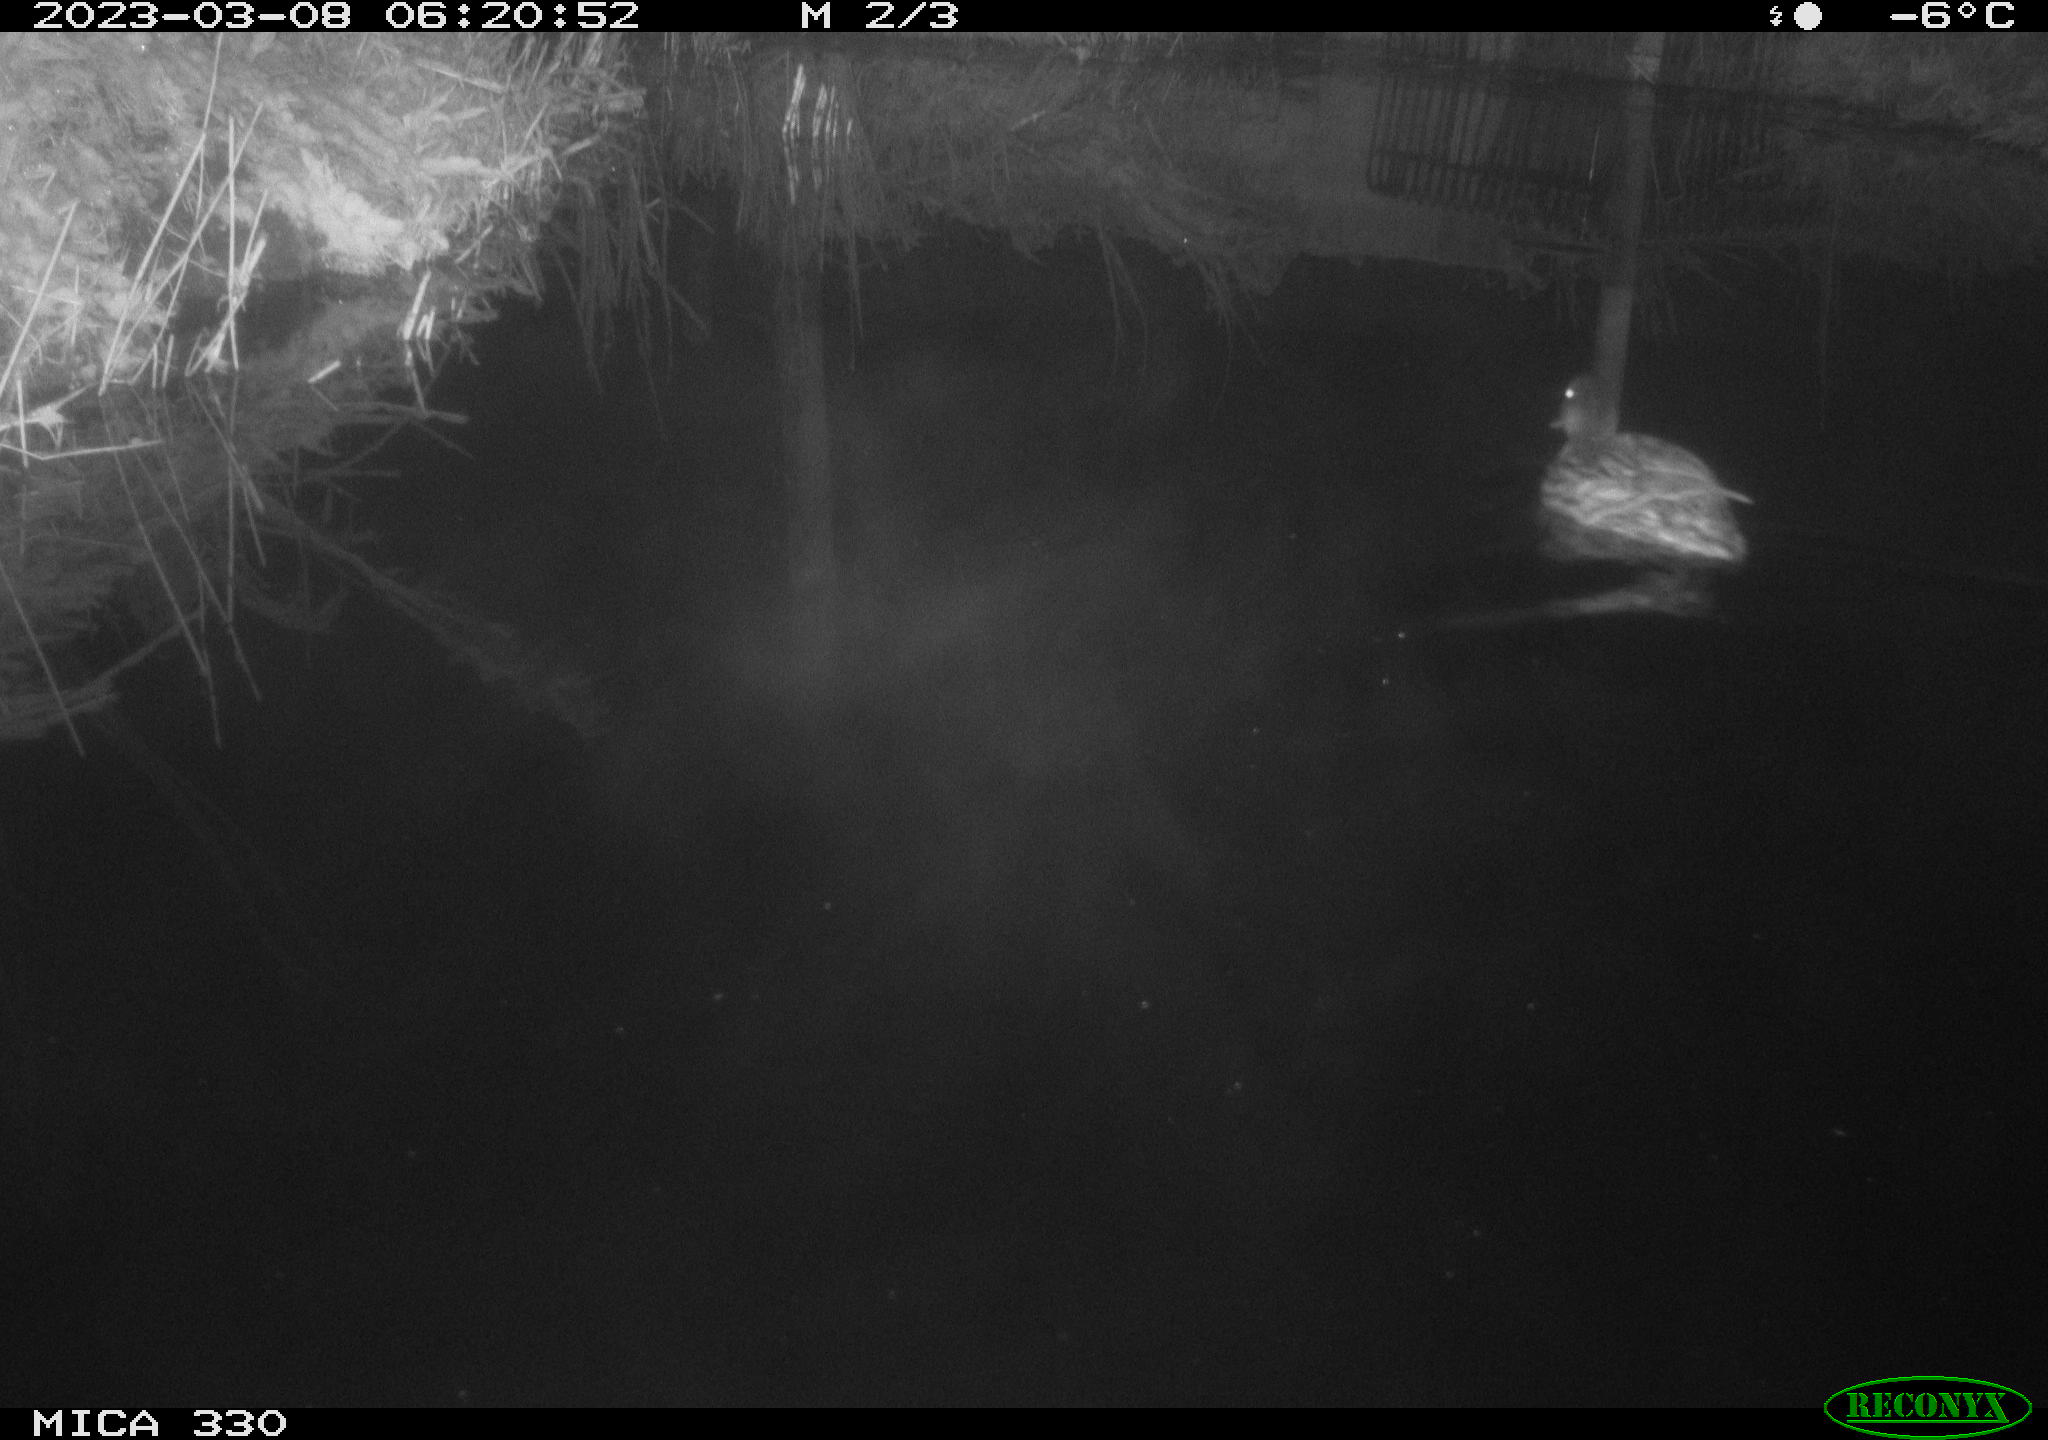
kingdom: Animalia
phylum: Chordata
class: Aves
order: Anseriformes
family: Anatidae
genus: Anas
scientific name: Anas
